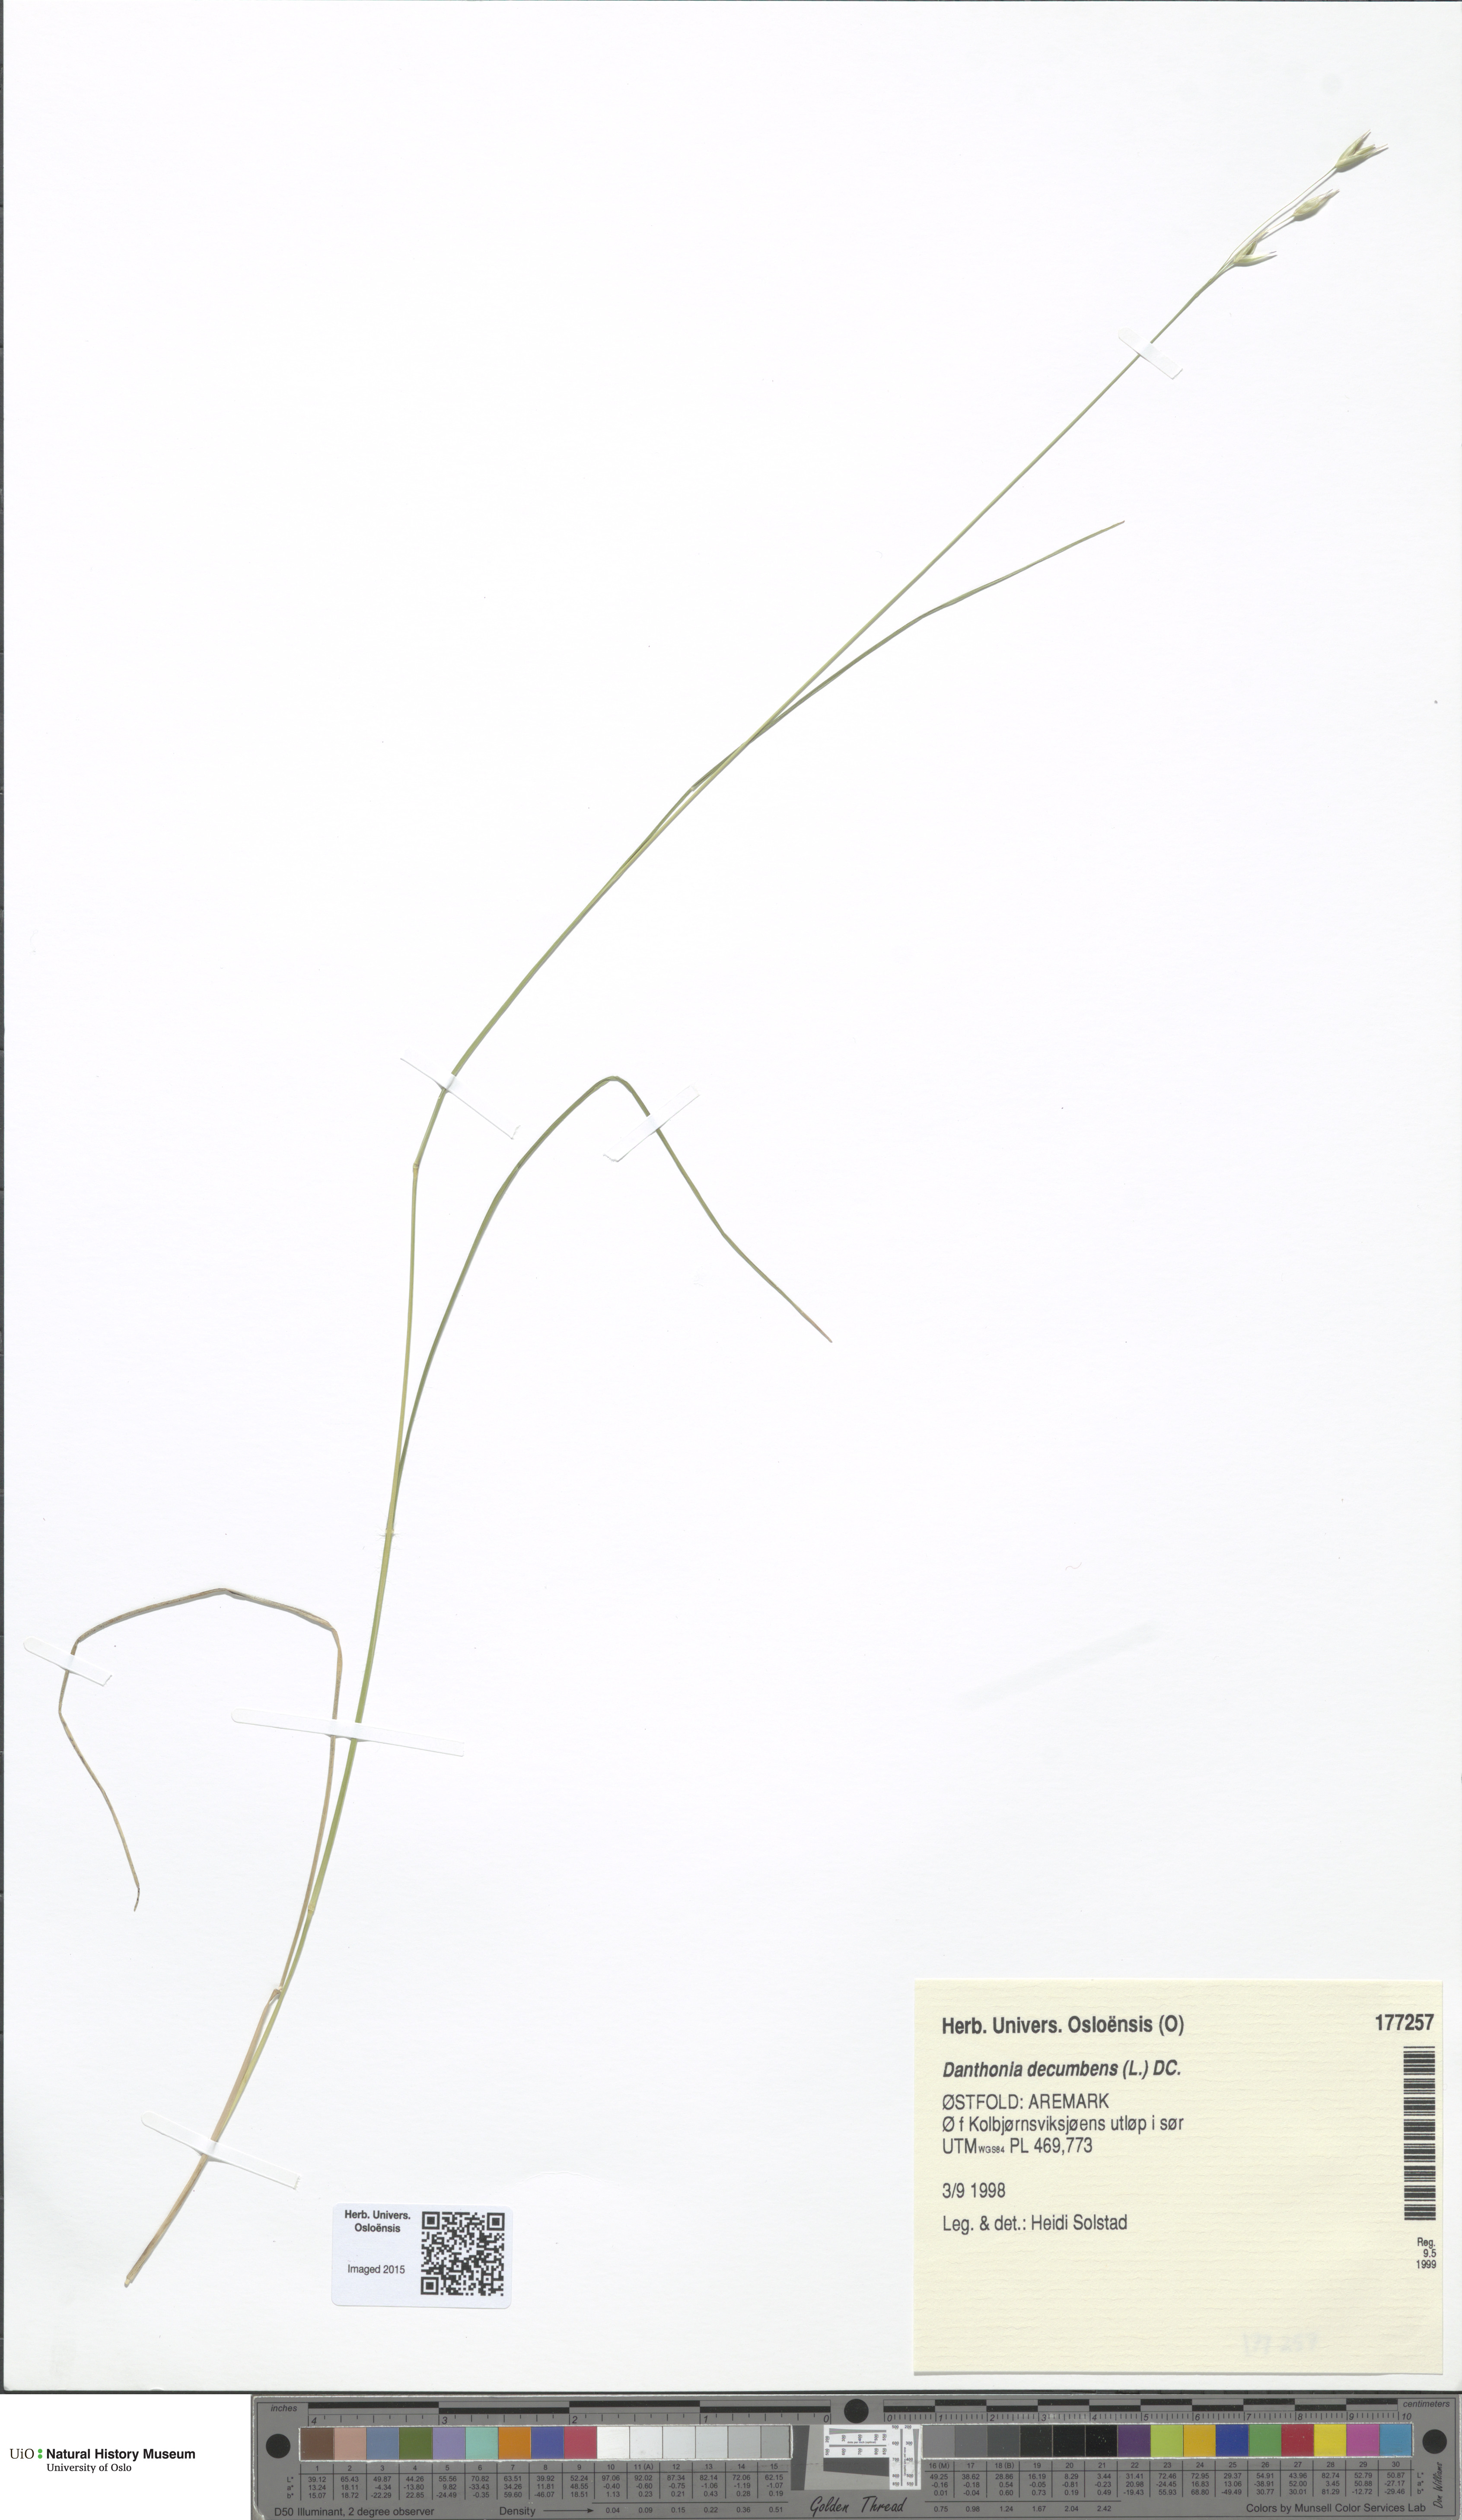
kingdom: Plantae
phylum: Tracheophyta
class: Liliopsida
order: Poales
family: Poaceae
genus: Danthonia
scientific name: Danthonia decumbens
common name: Common heathgrass
